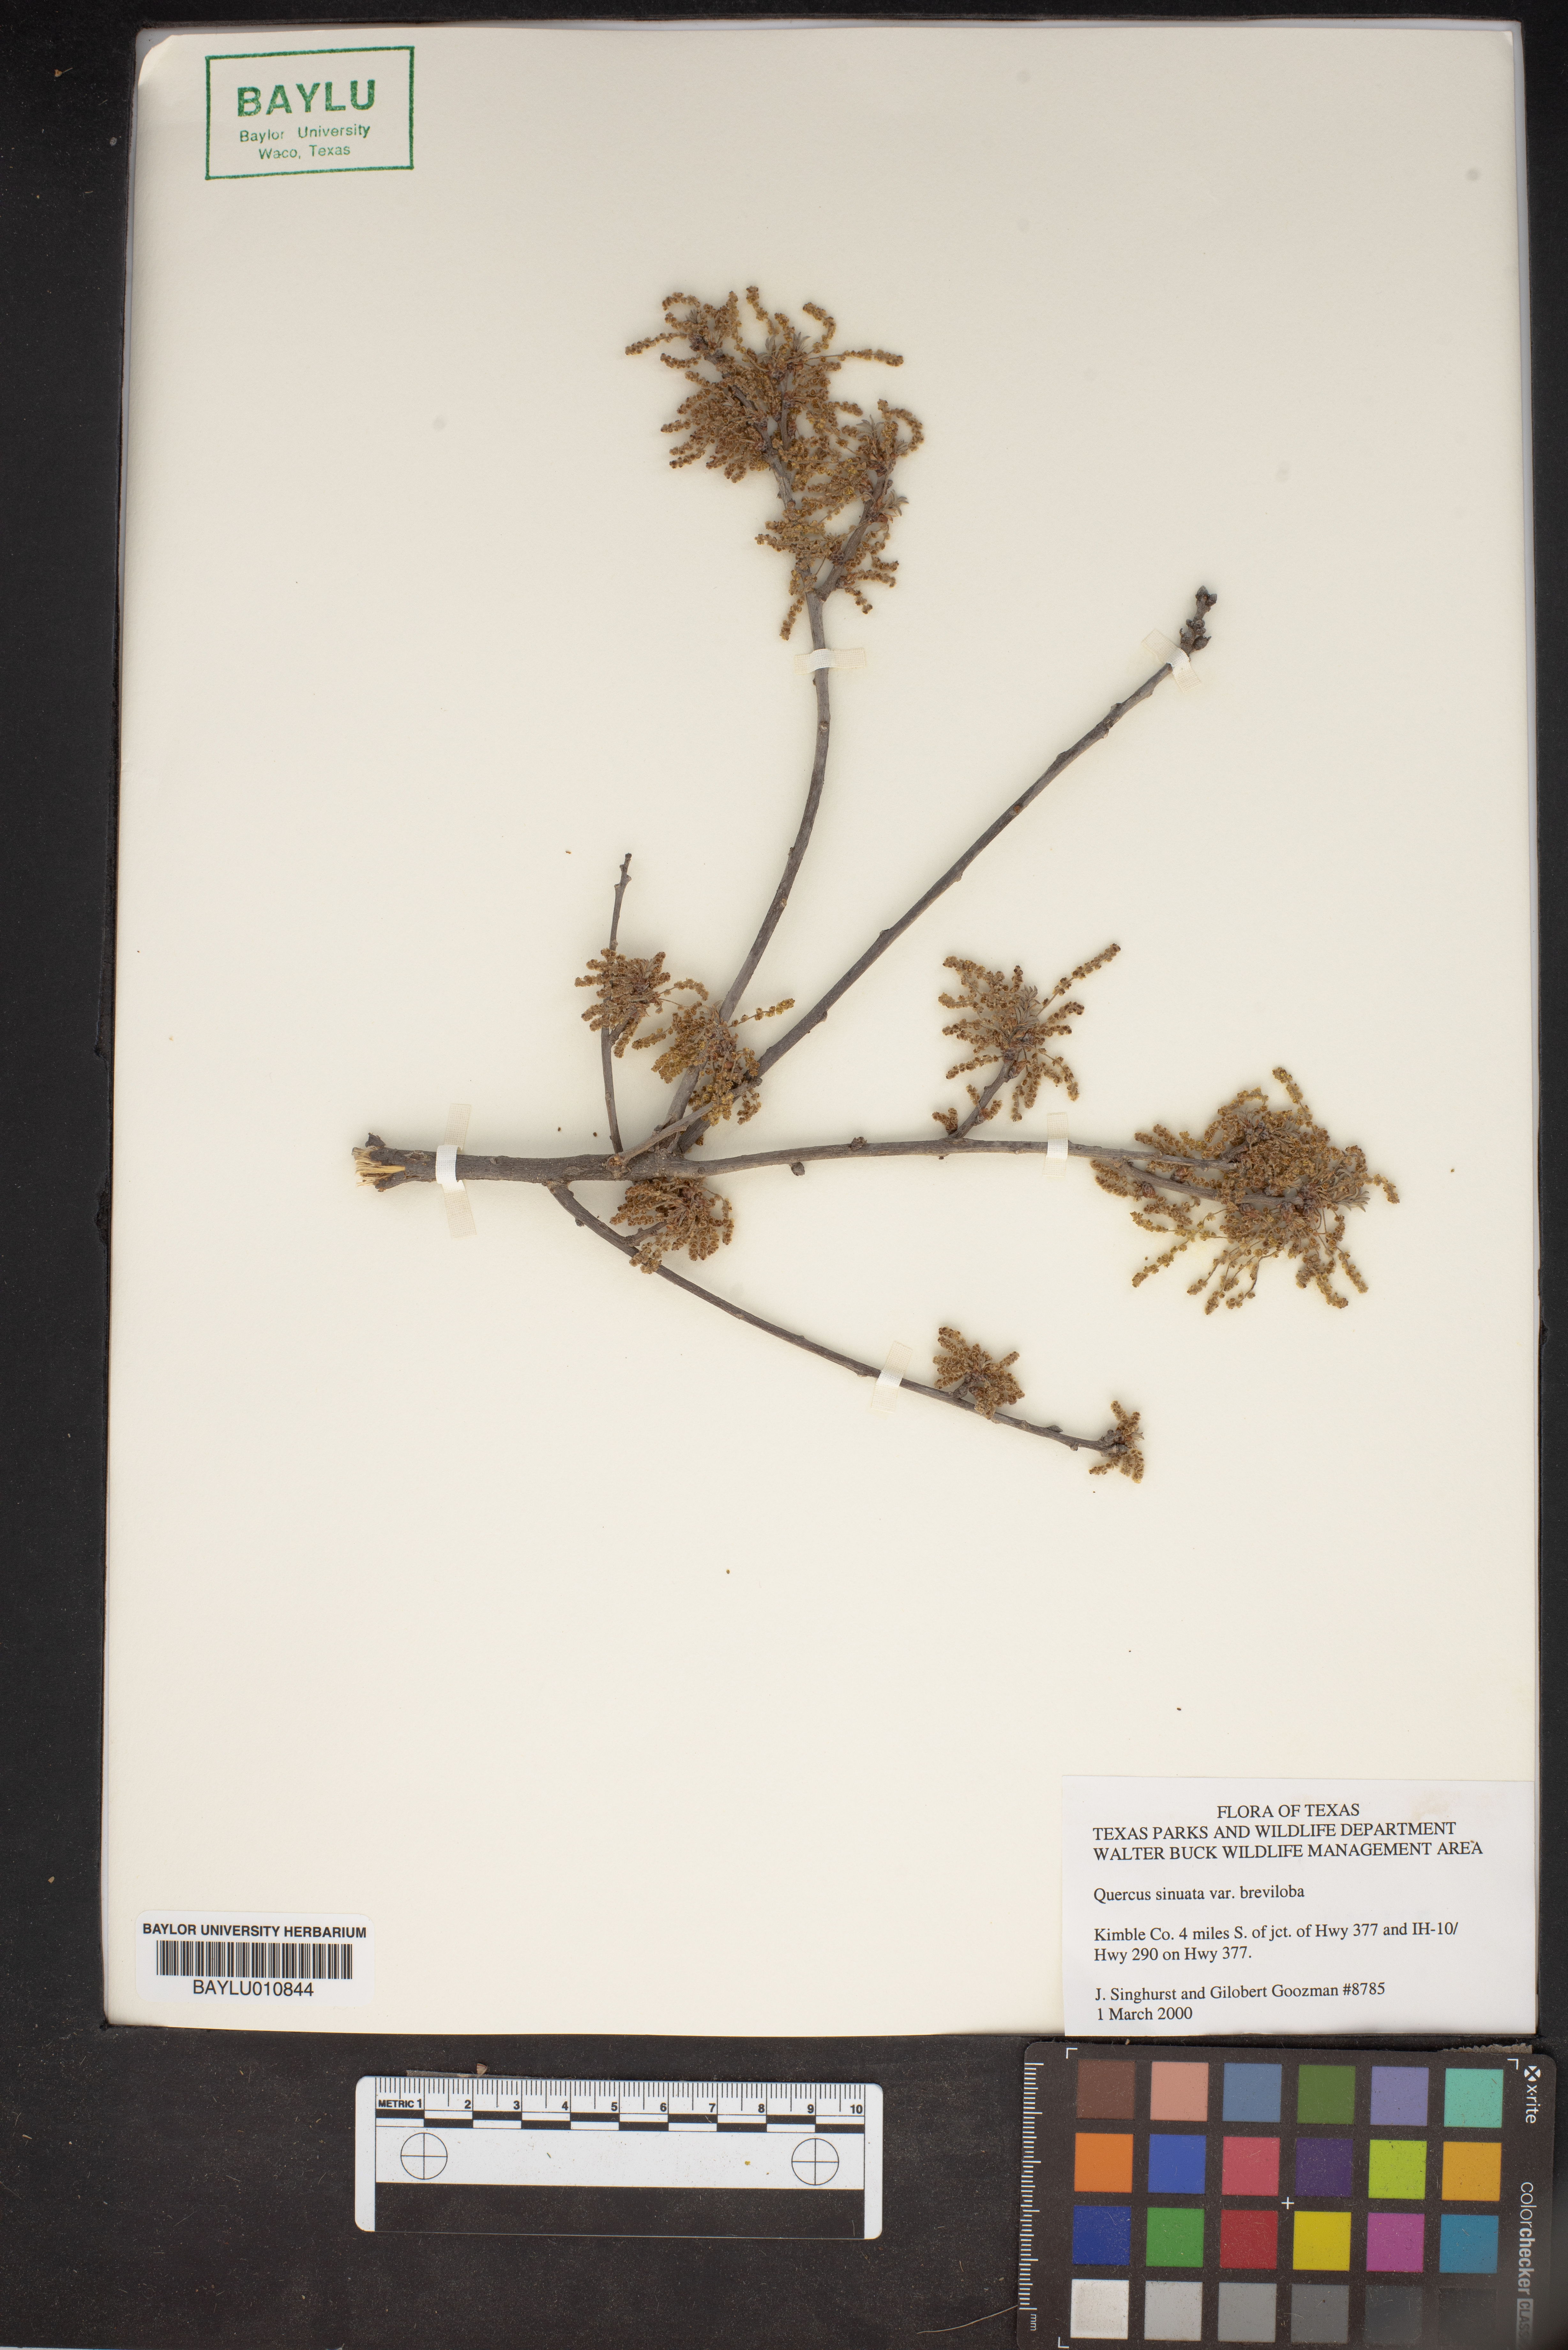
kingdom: Plantae
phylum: Tracheophyta
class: Magnoliopsida
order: Fagales
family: Fagaceae
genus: Quercus
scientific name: Quercus sinuata
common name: Durand oak
